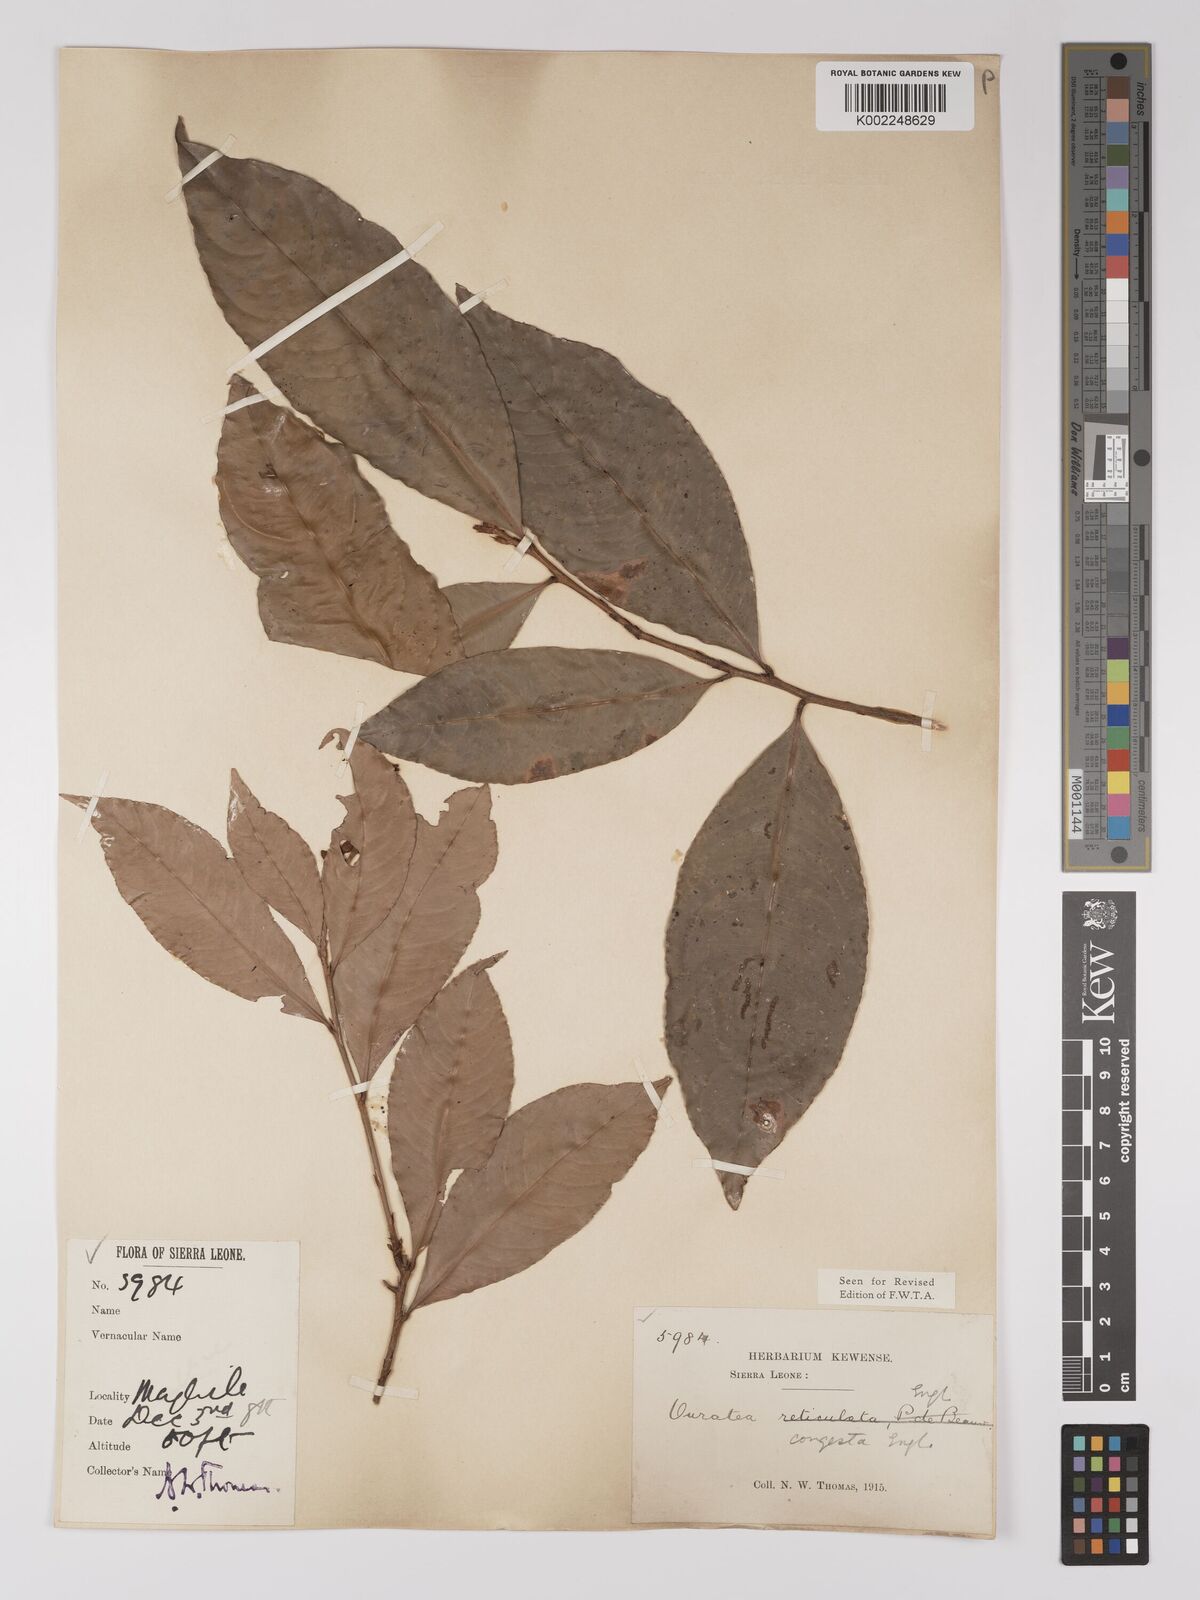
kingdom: Plantae
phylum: Tracheophyta
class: Magnoliopsida
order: Malpighiales
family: Ochnaceae
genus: Campylospermum
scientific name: Campylospermum congestum
